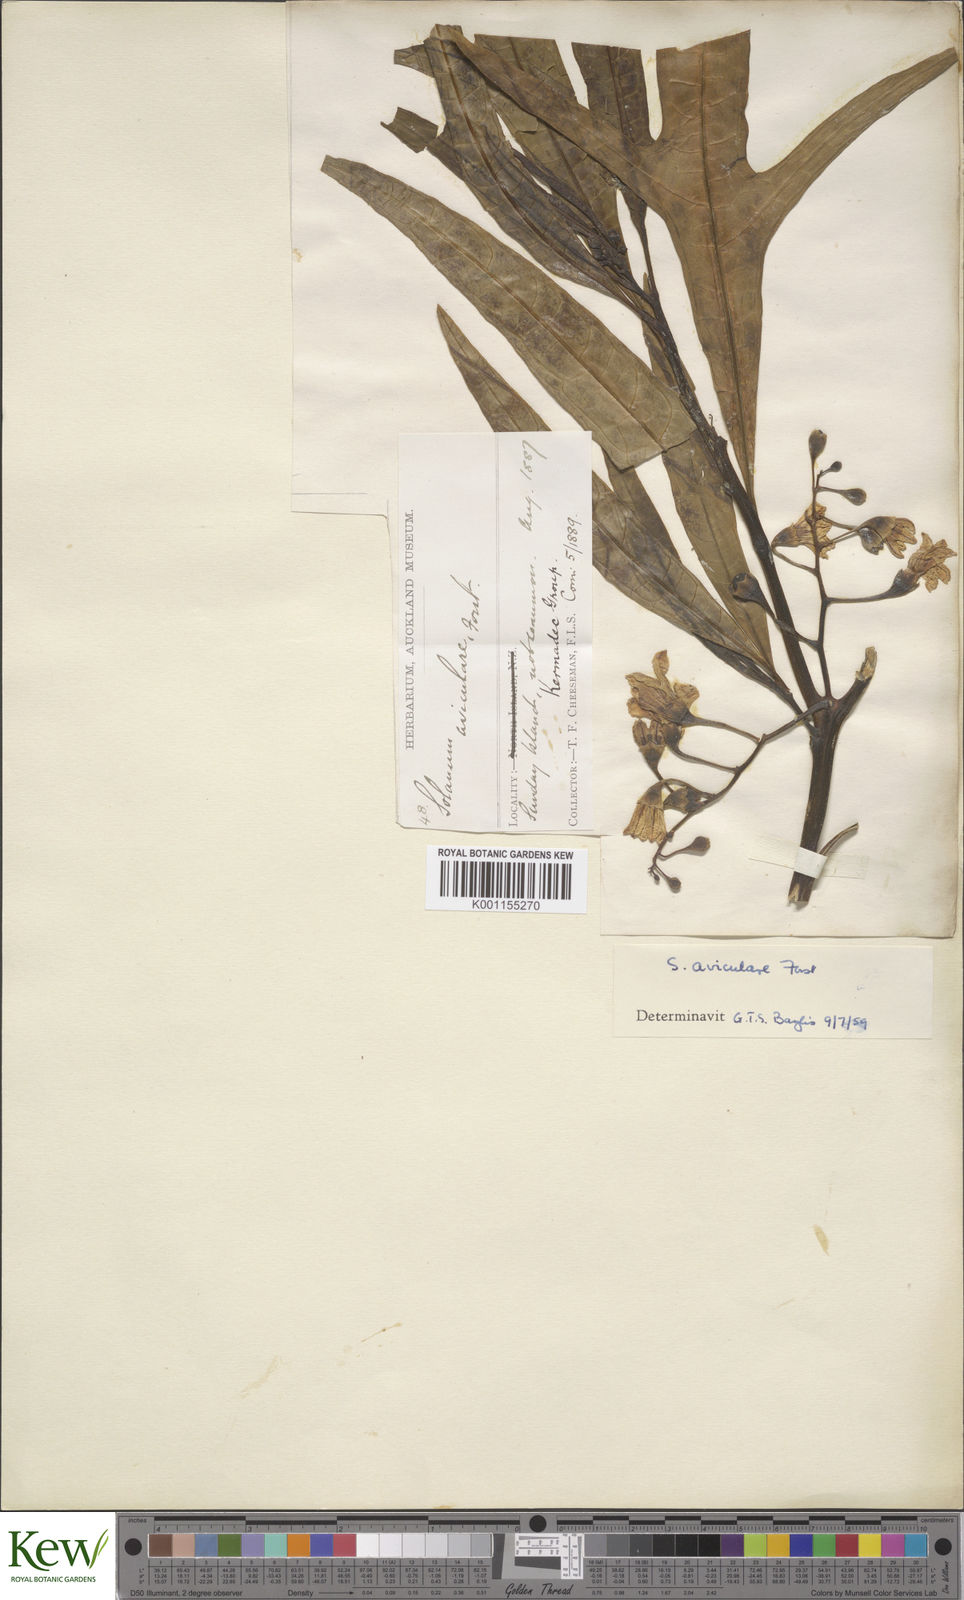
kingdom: Plantae
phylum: Tracheophyta
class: Magnoliopsida
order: Solanales
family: Solanaceae
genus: Solanum
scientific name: Solanum aviculare
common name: New zealand nightshade
